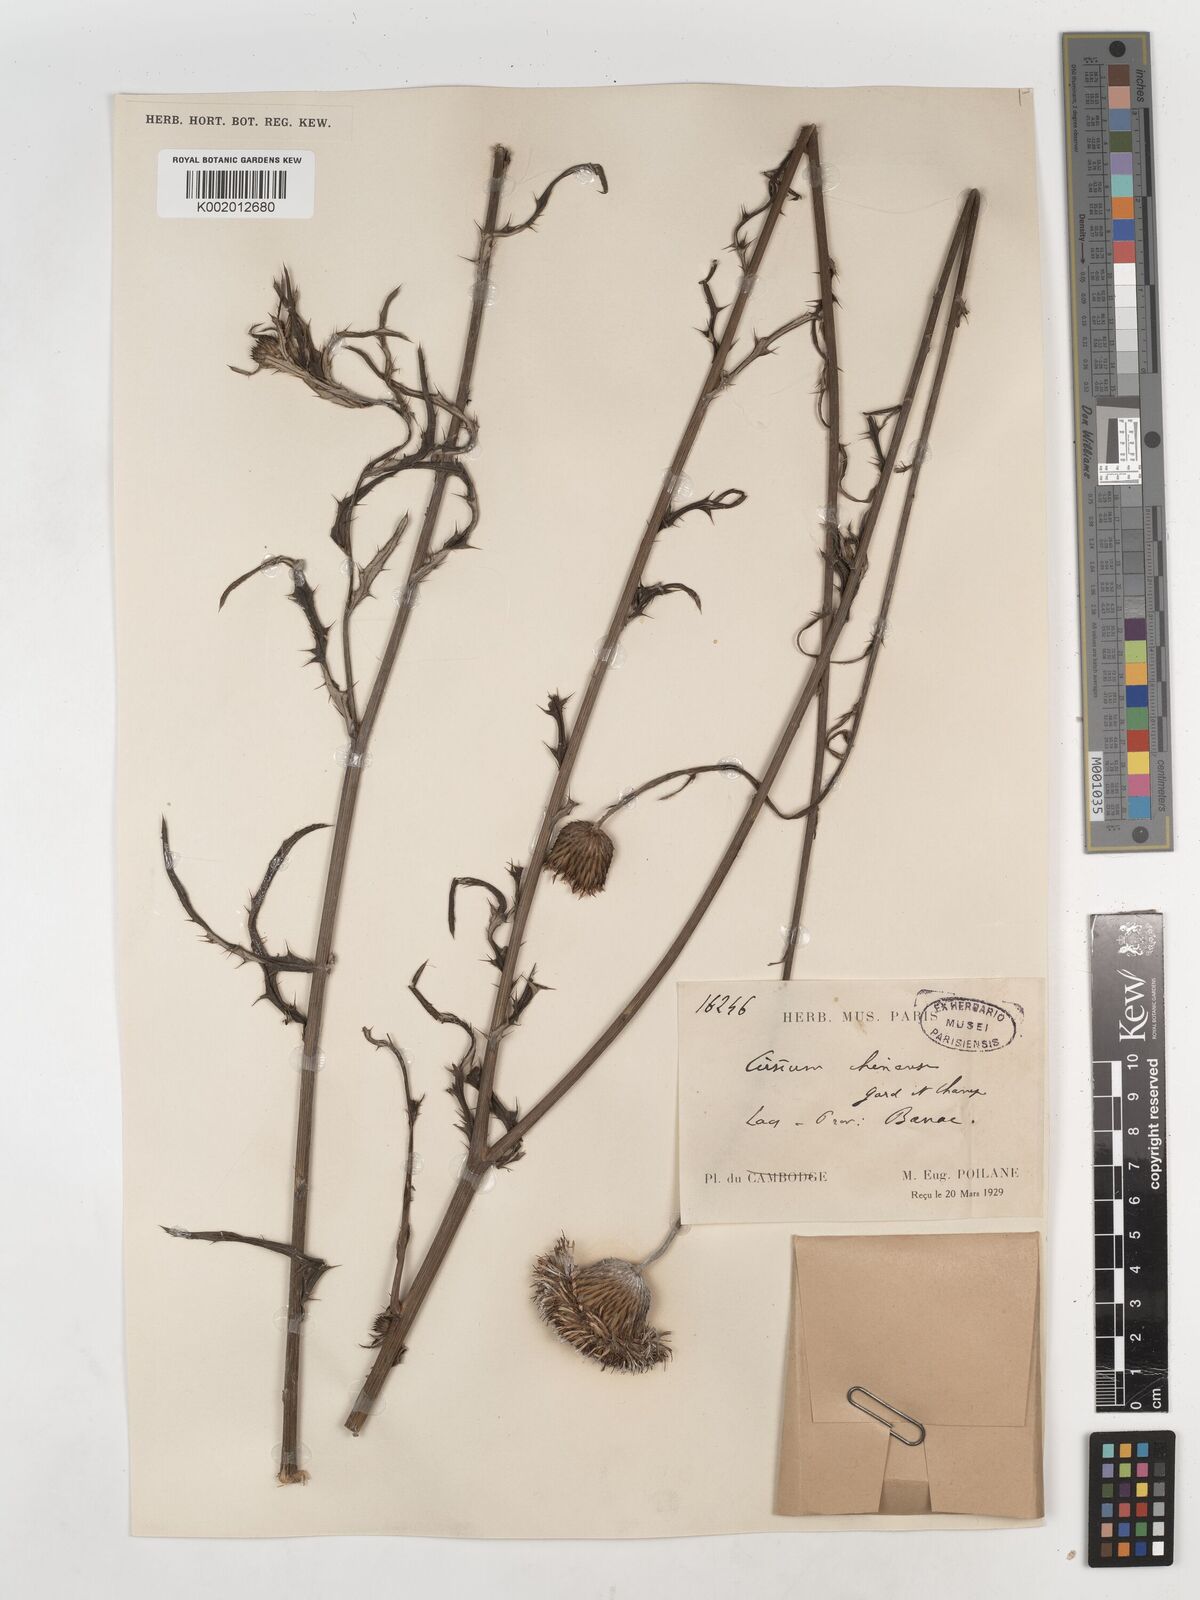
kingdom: Plantae
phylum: Tracheophyta
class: Magnoliopsida
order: Asterales
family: Asteraceae
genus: Cirsium
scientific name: Cirsium chinense
